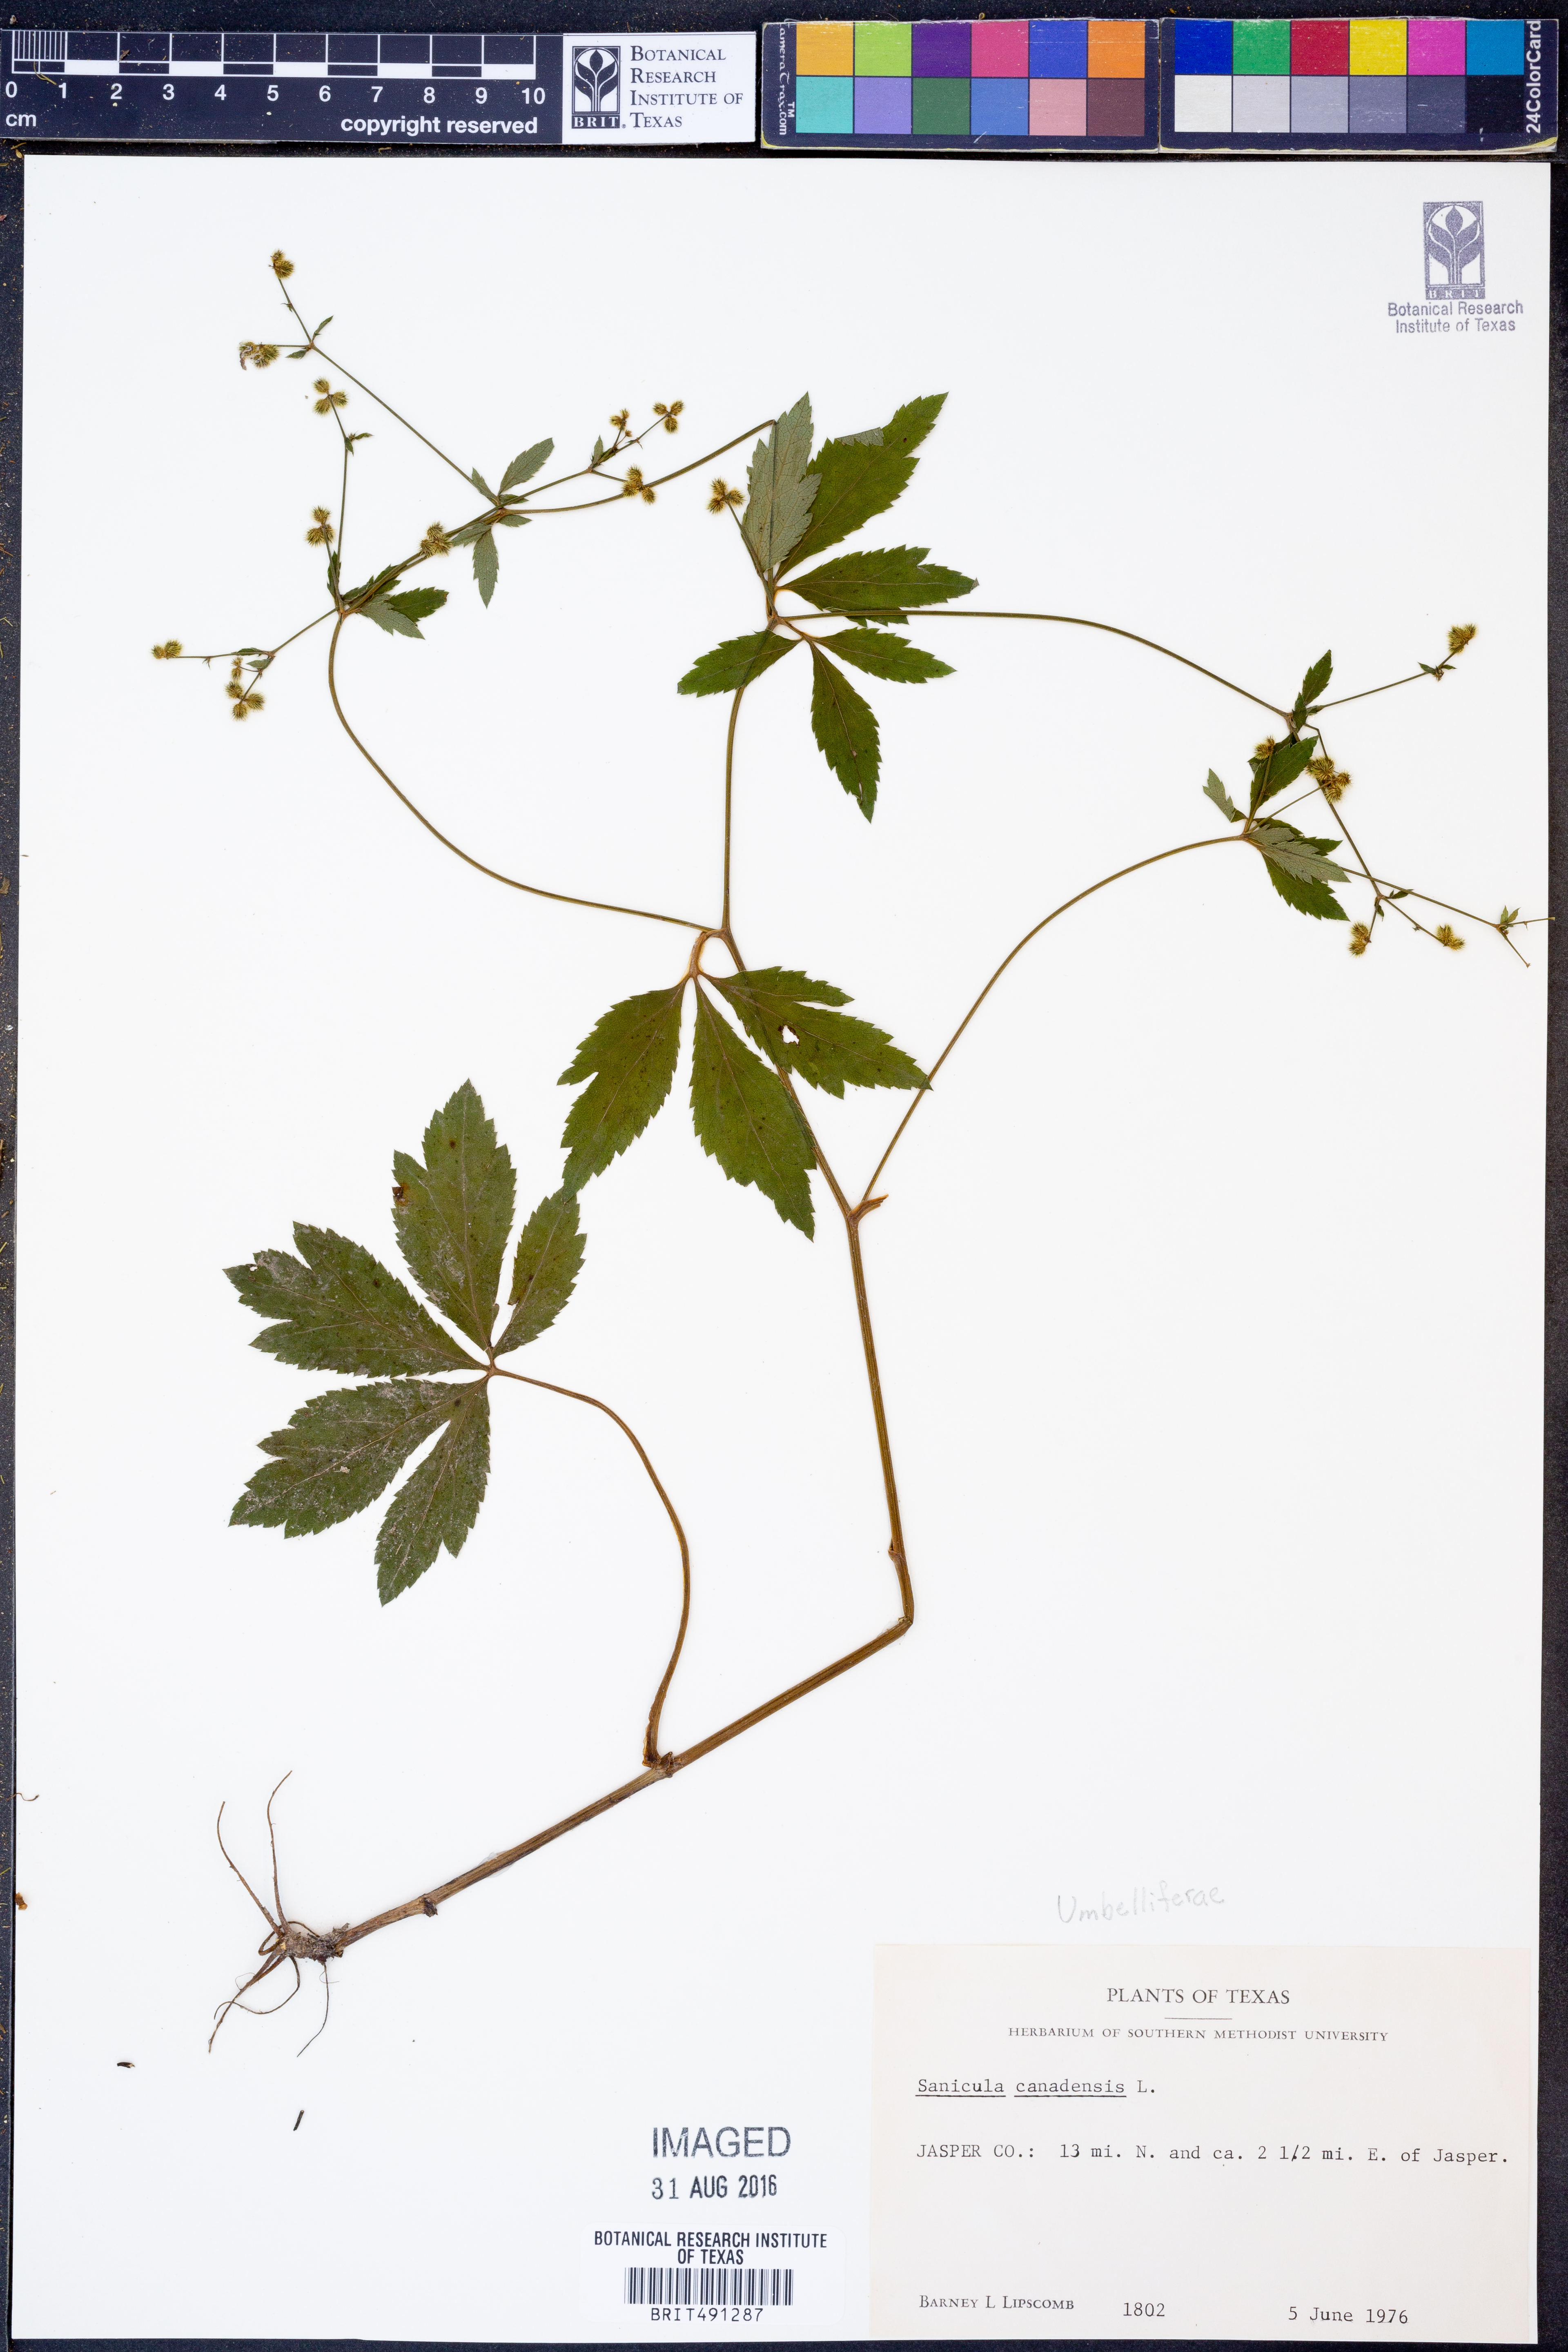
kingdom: Plantae
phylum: Tracheophyta
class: Magnoliopsida
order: Apiales
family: Apiaceae
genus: Sanicula
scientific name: Sanicula canadensis
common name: Canada sanicle
